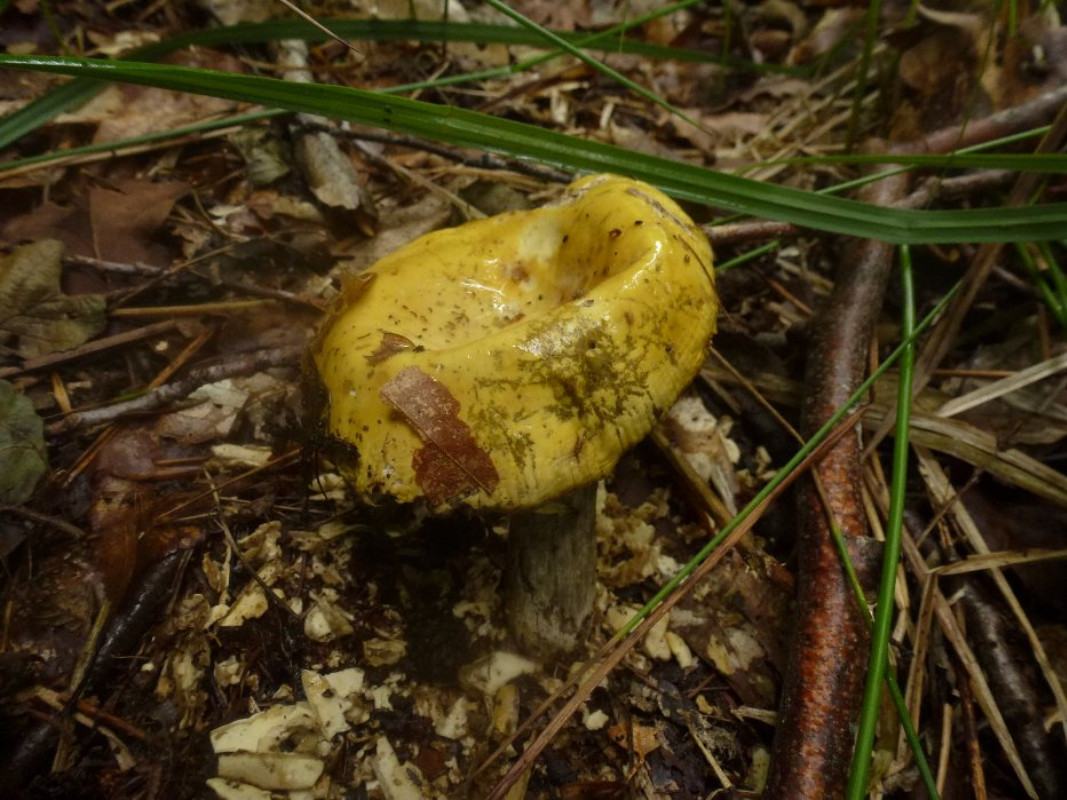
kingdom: Fungi
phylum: Basidiomycota
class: Agaricomycetes
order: Russulales
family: Russulaceae
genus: Russula
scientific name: Russula claroflava
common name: birke-skørhat
